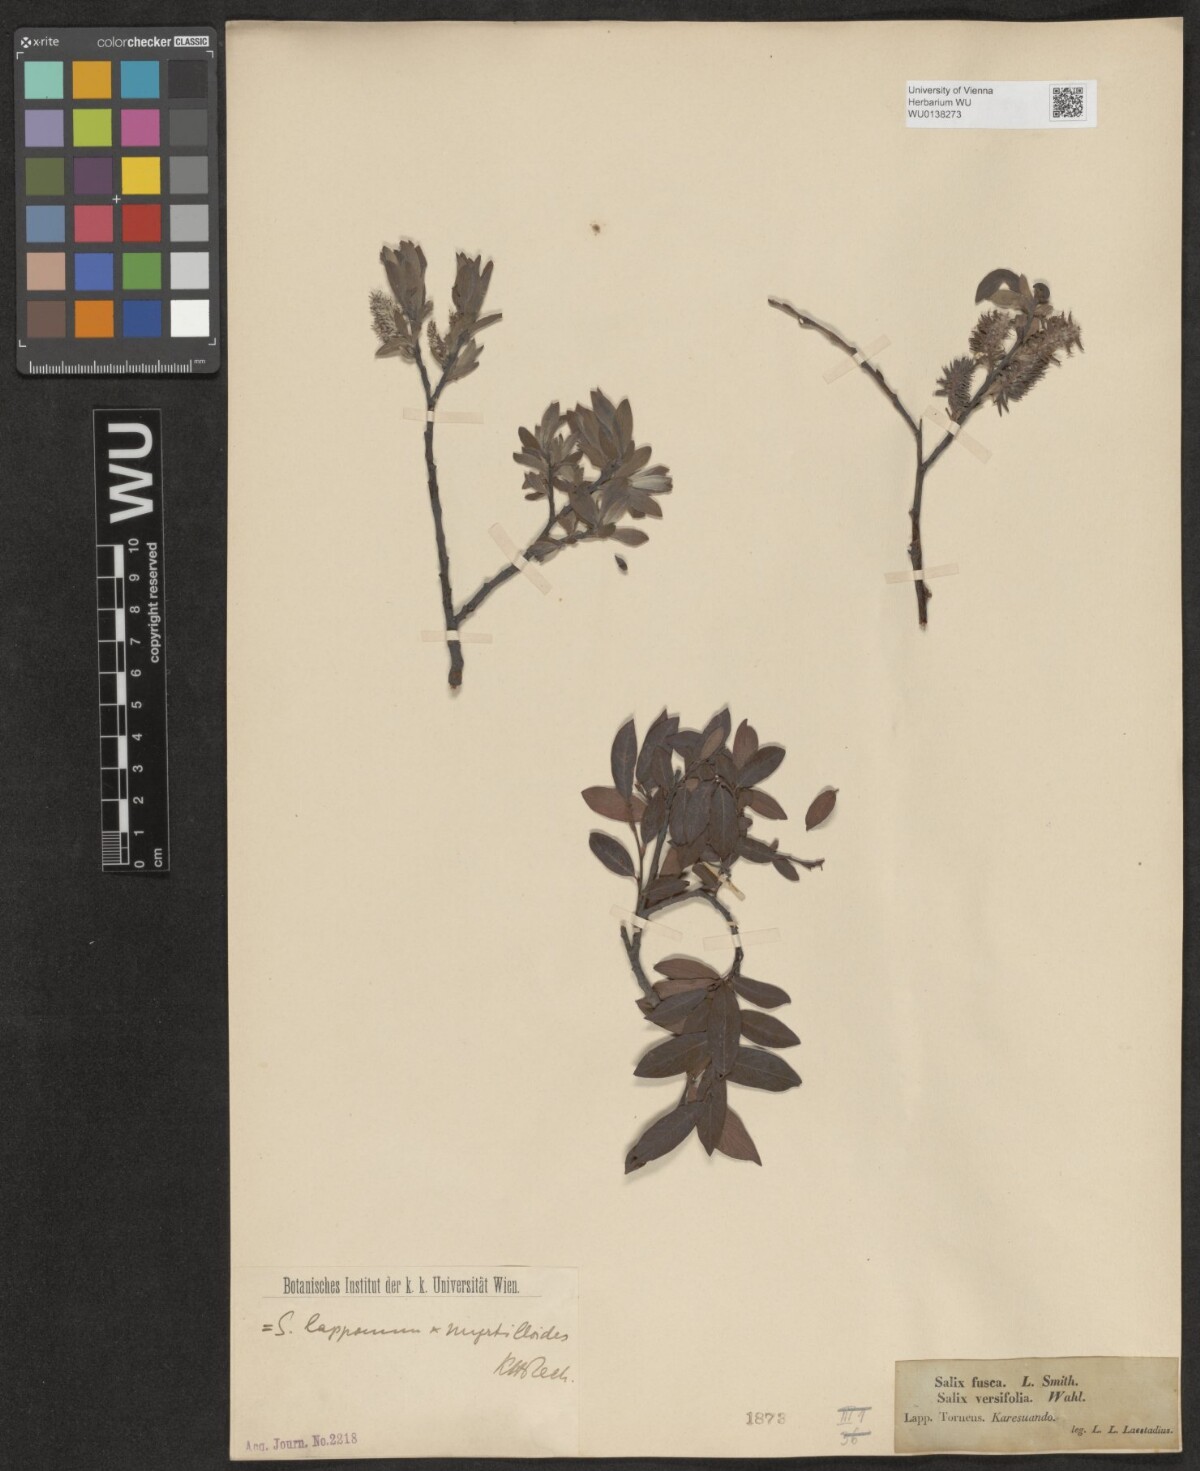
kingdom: Plantae
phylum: Tracheophyta
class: Magnoliopsida
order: Malpighiales
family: Salicaceae
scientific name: Salicaceae
